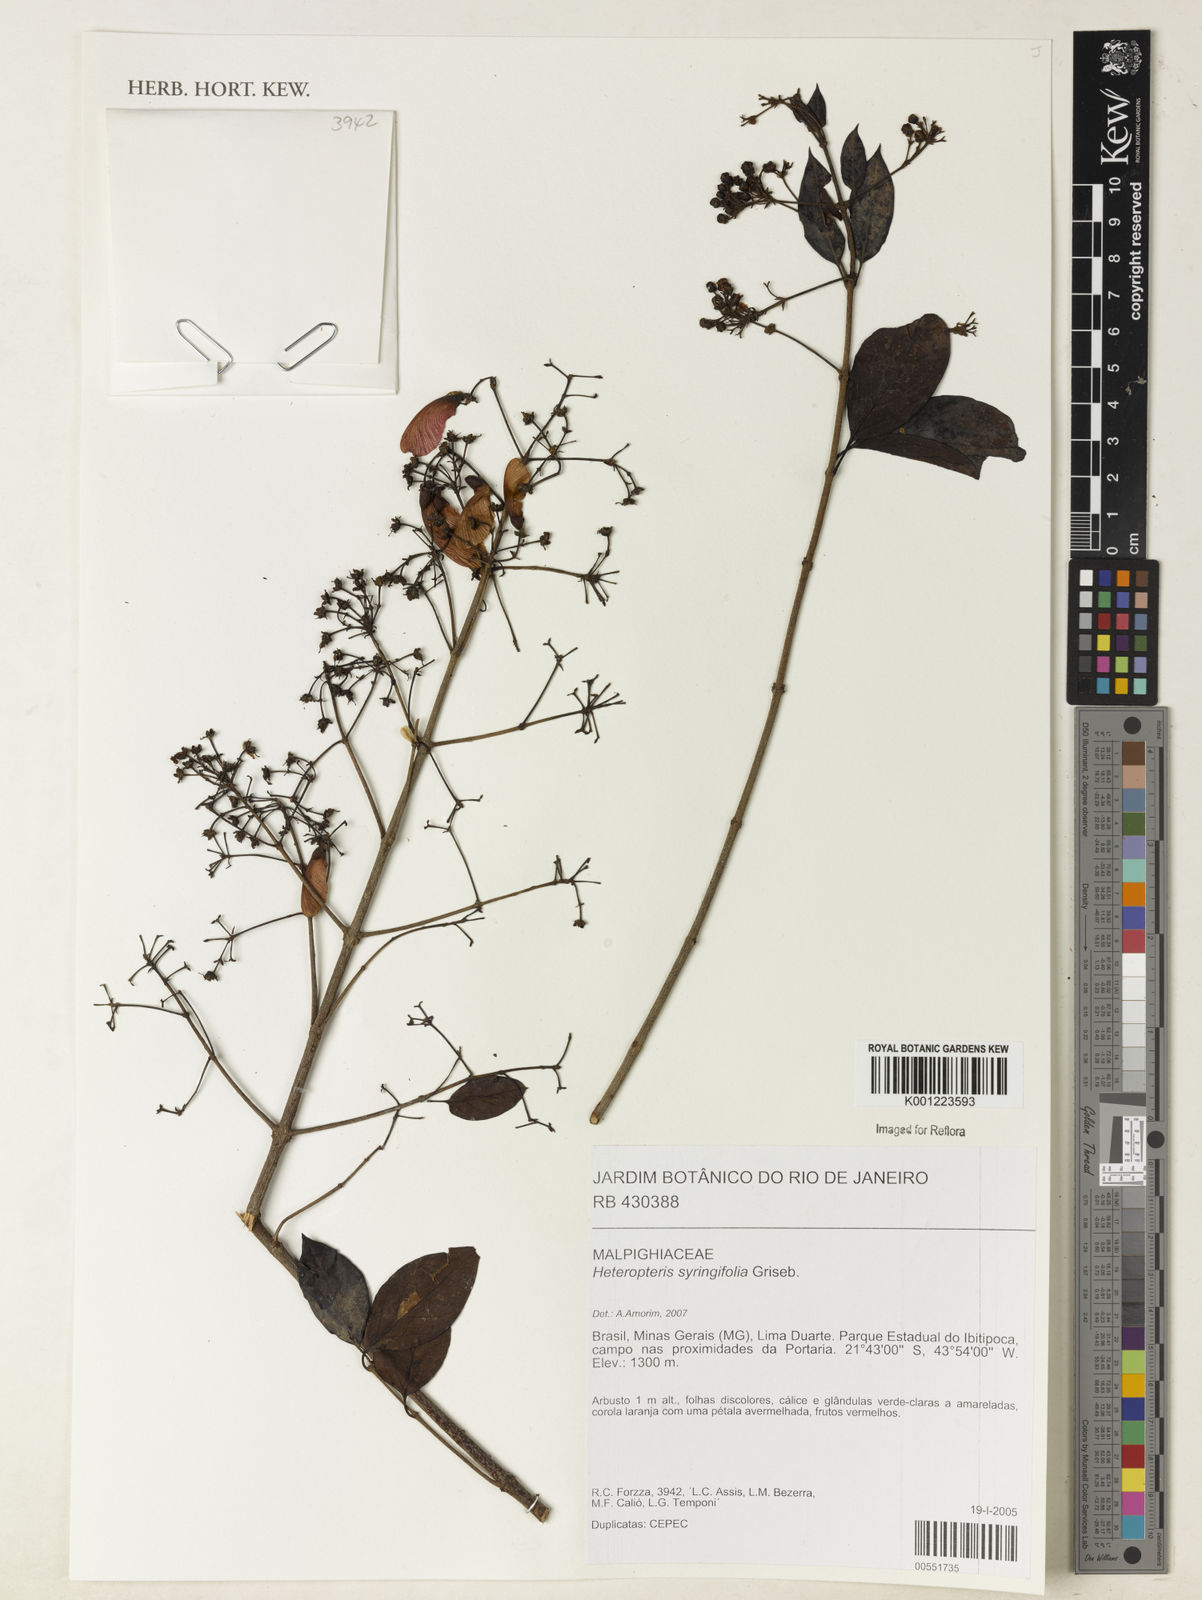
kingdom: Plantae
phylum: Tracheophyta
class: Magnoliopsida
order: Malpighiales
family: Malpighiaceae
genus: Heteropterys
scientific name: Heteropterys syringifolia
